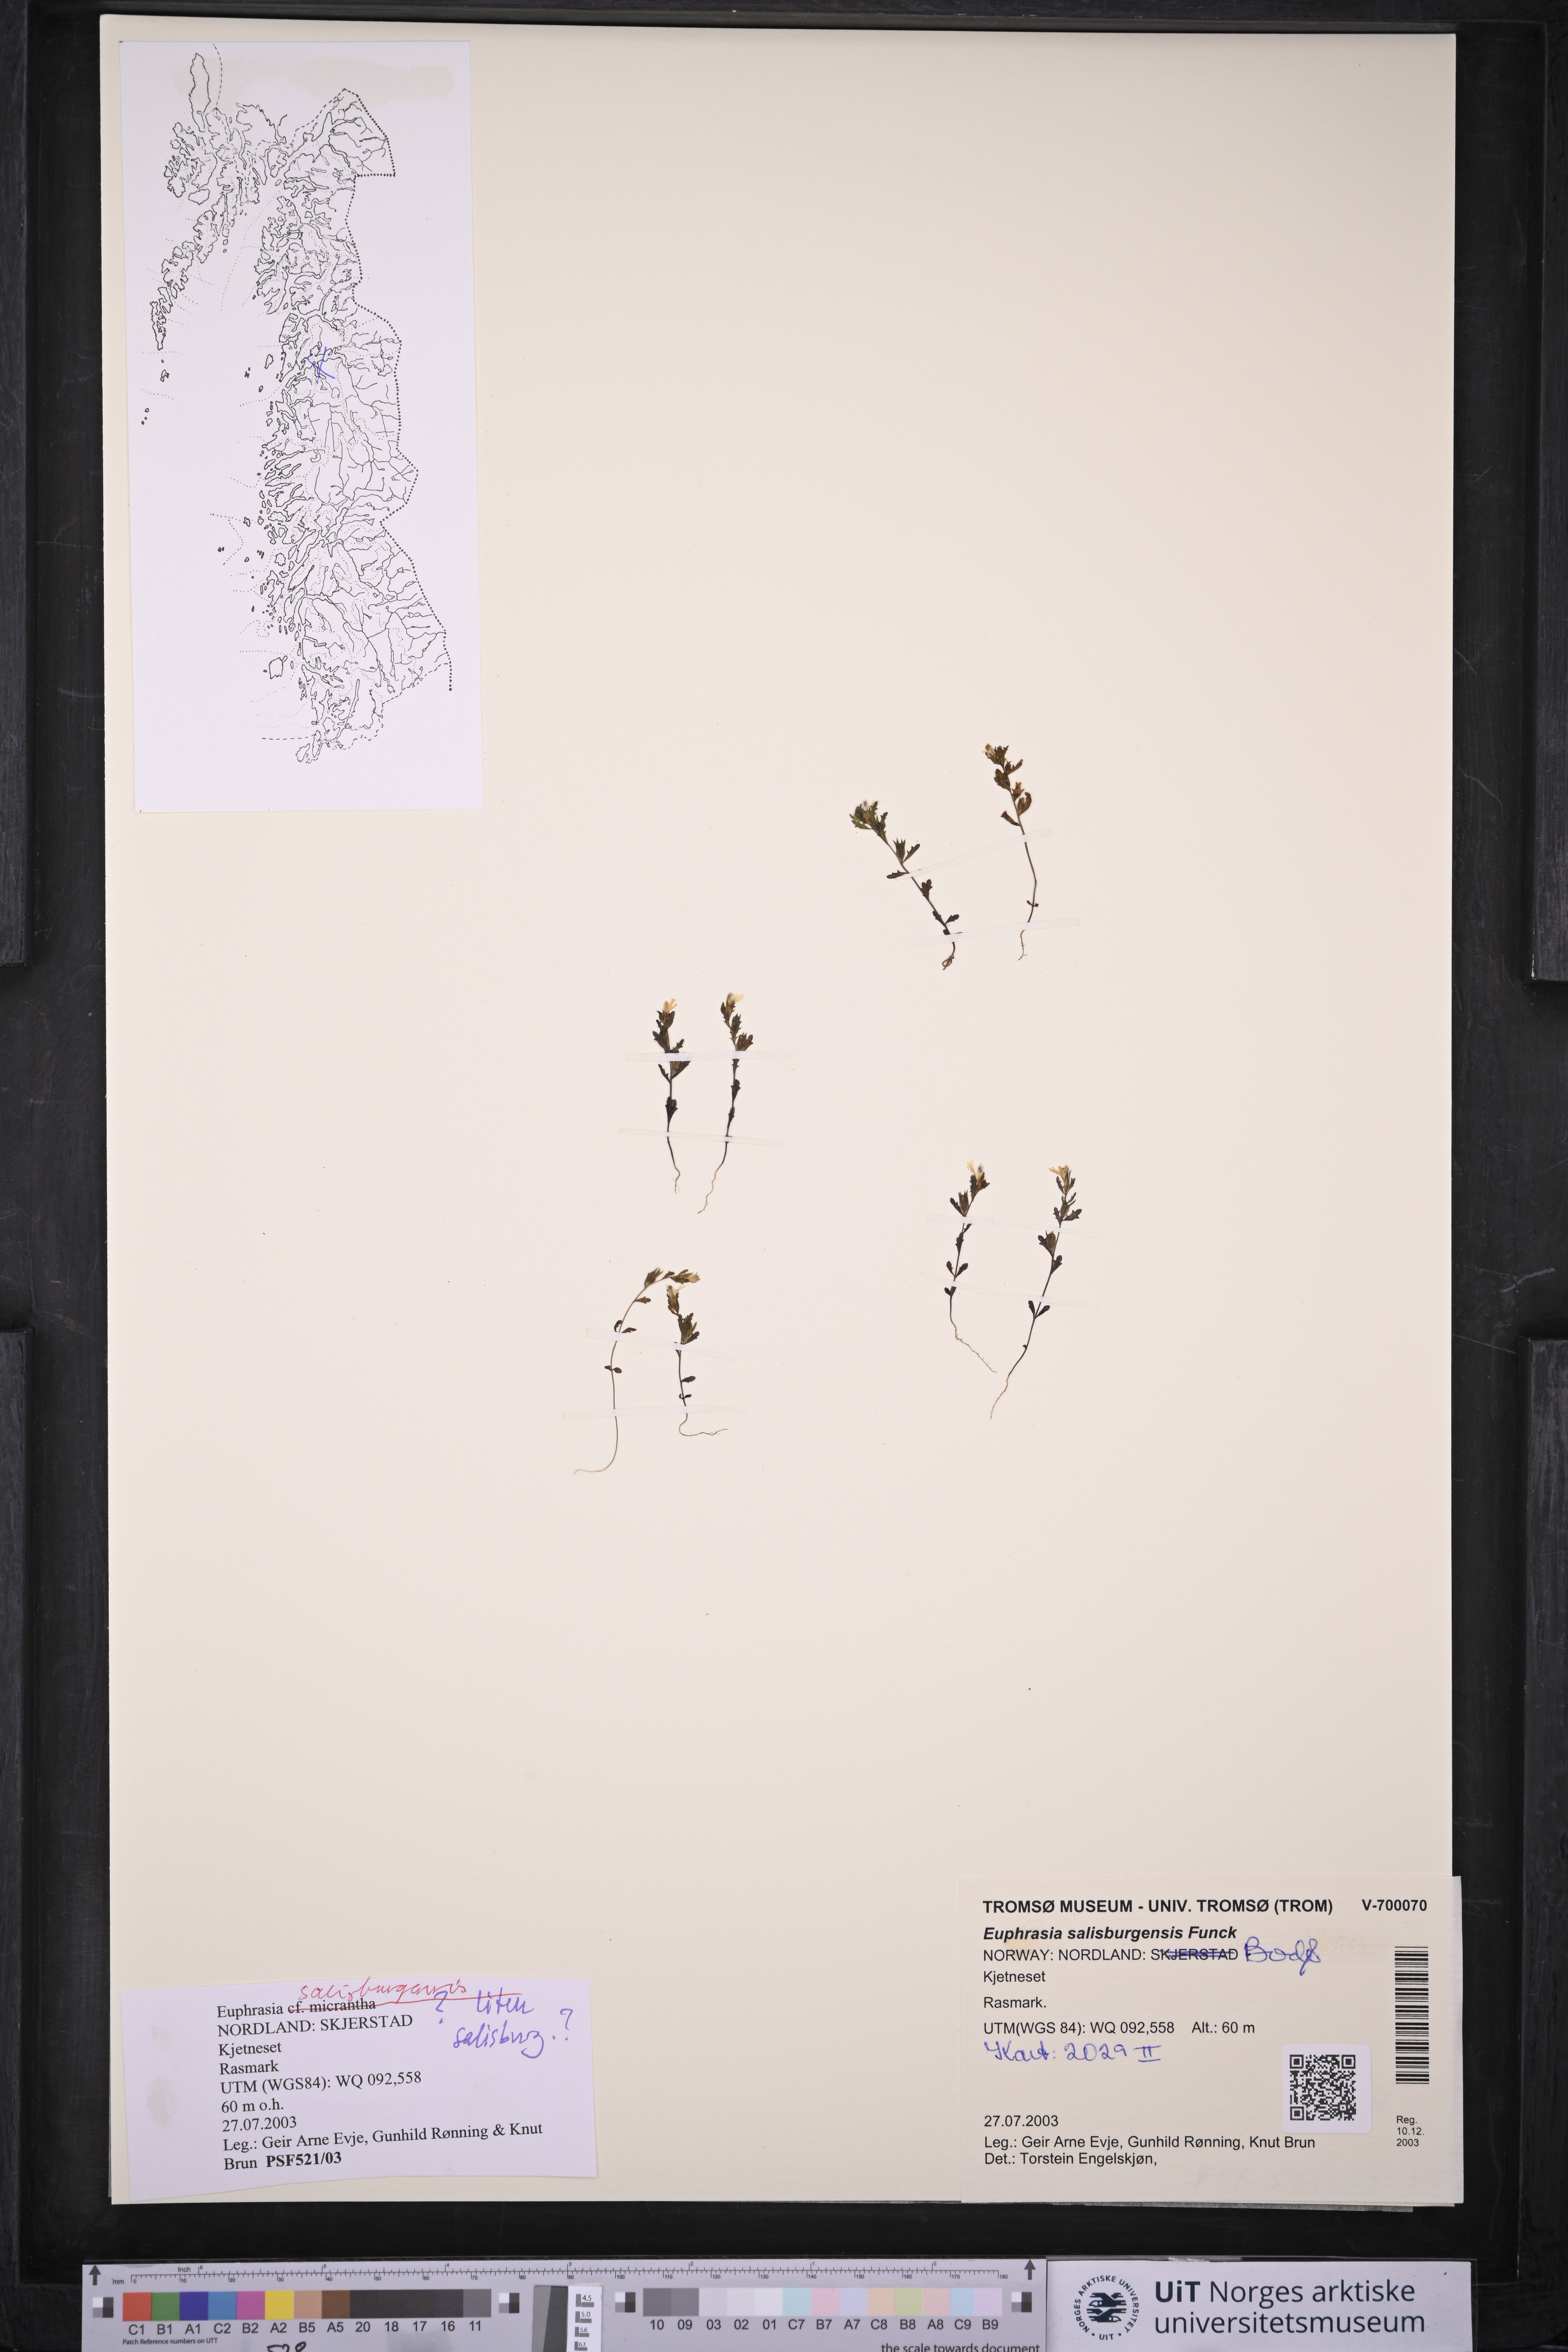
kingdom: Plantae
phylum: Tracheophyta
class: Magnoliopsida
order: Lamiales
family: Orobanchaceae
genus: Euphrasia
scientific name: Euphrasia salisburgensis
